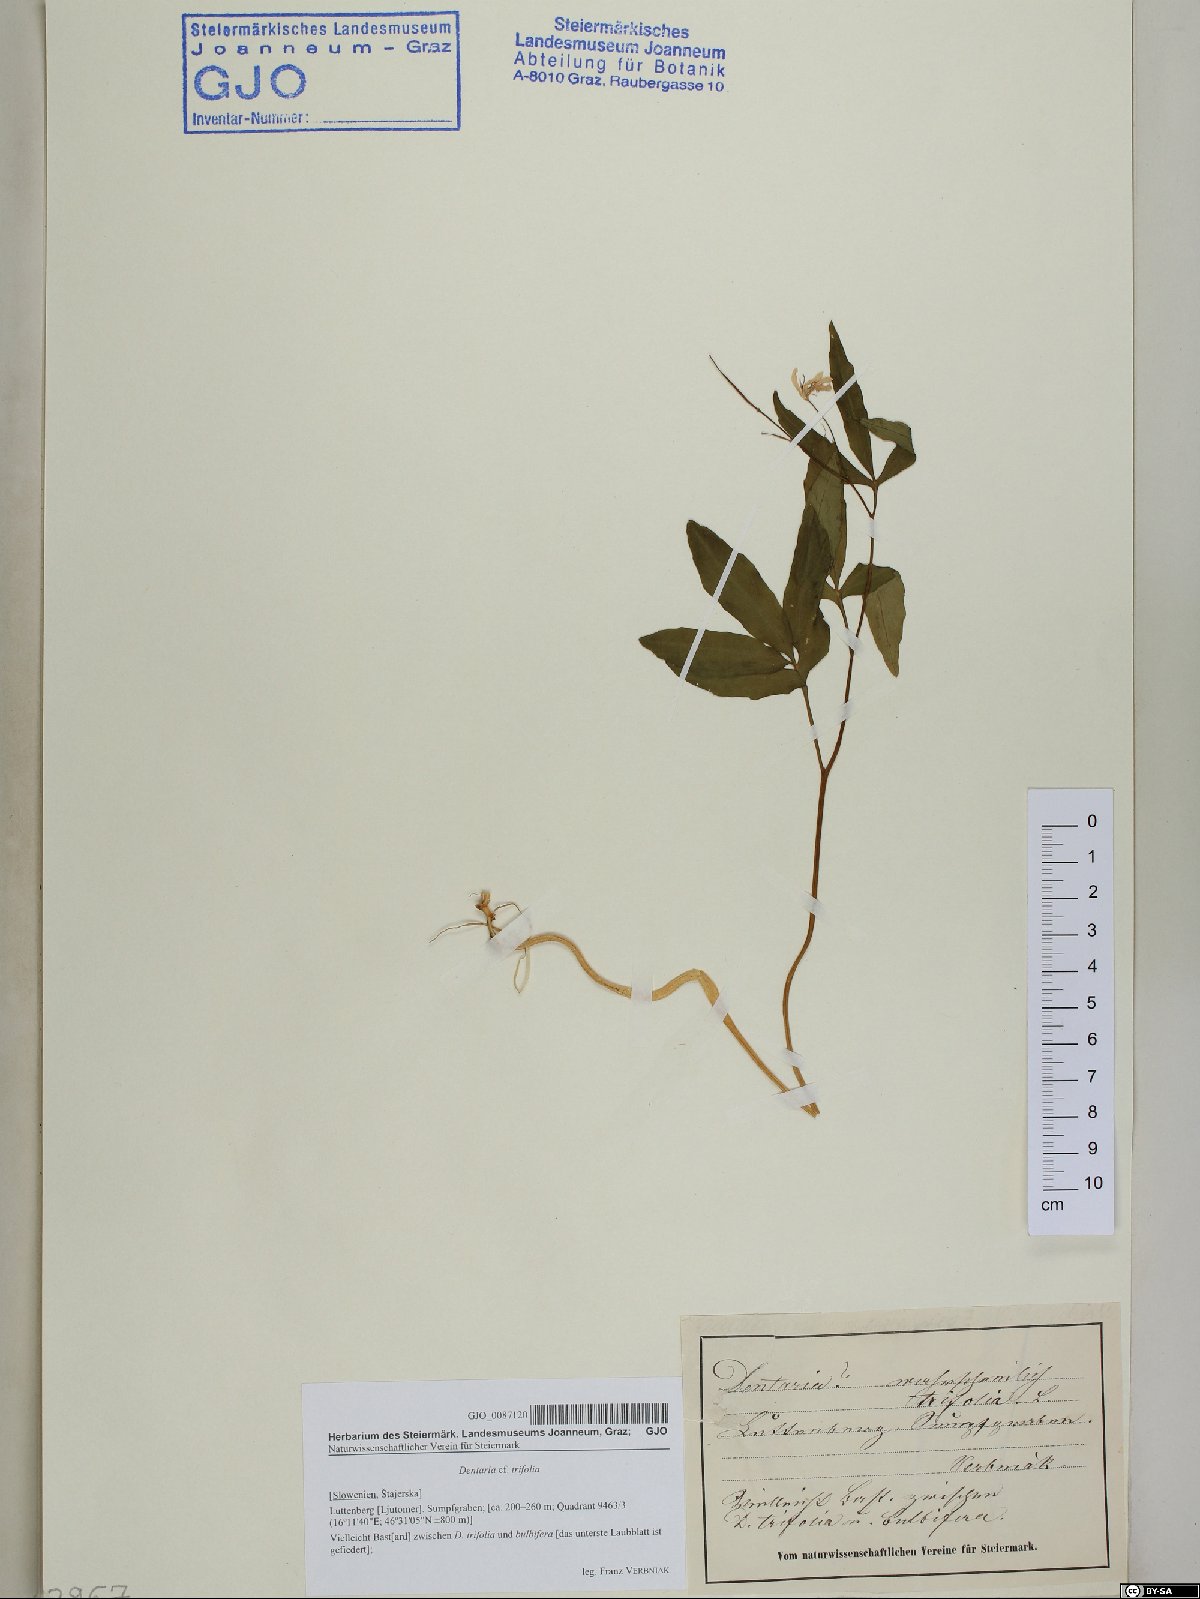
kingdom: Plantae
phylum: Tracheophyta
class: Magnoliopsida
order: Brassicales
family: Brassicaceae
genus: Cardamine
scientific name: Cardamine waldsteinii
